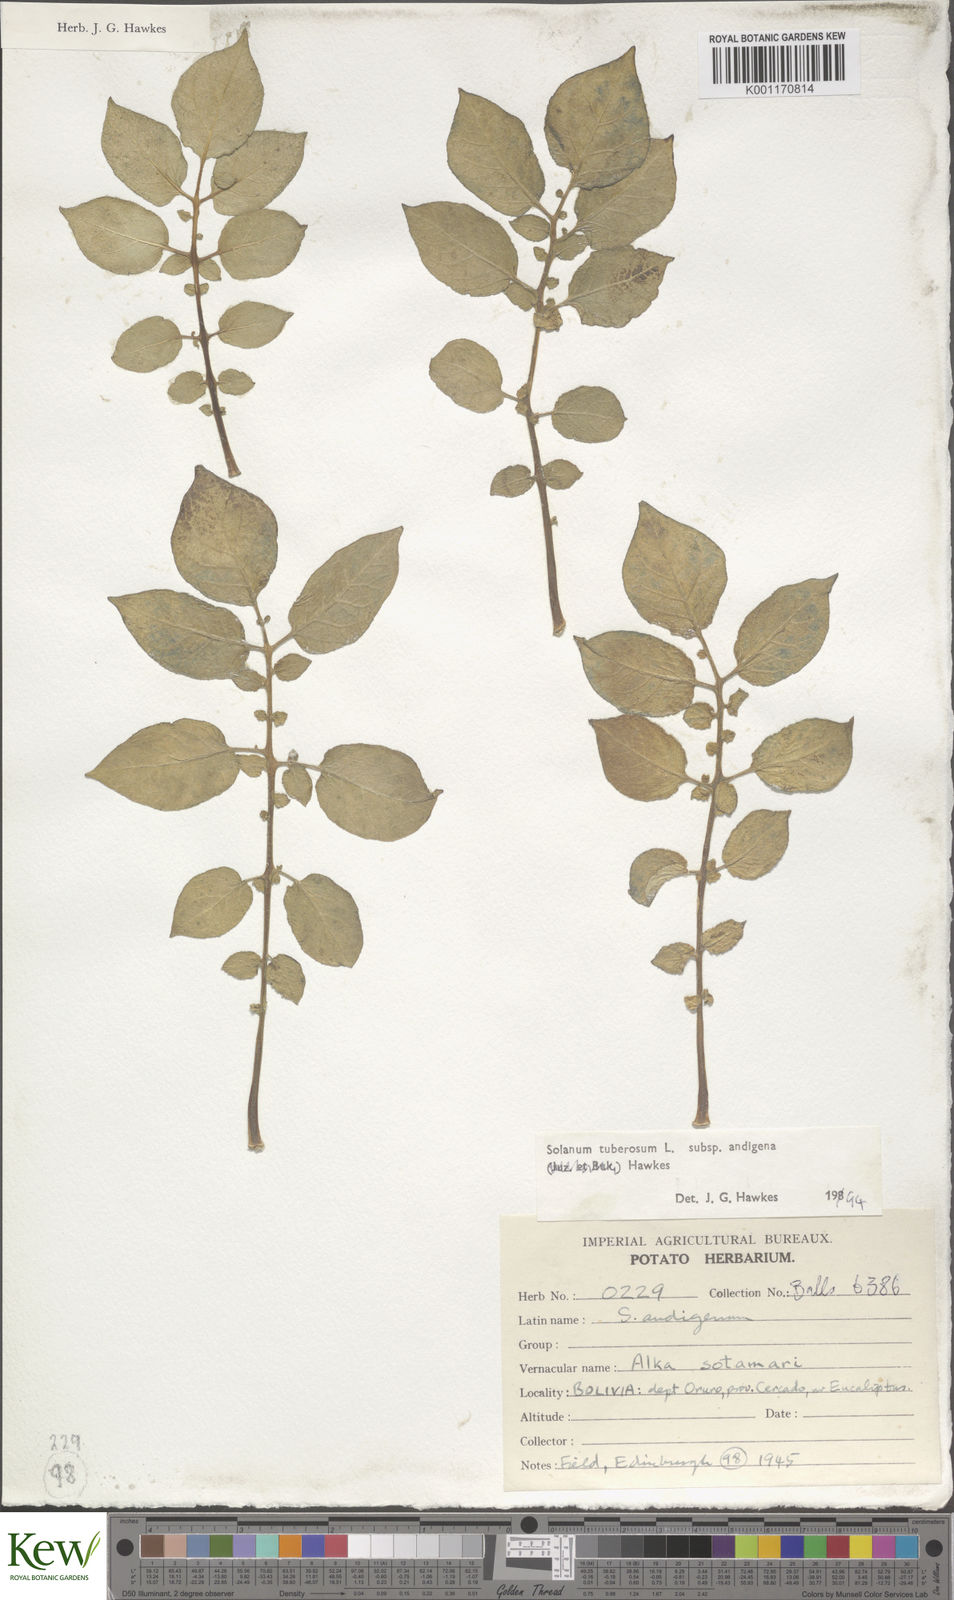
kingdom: Plantae
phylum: Tracheophyta
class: Magnoliopsida
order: Solanales
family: Solanaceae
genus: Solanum
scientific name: Solanum tuberosum
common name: Potato
